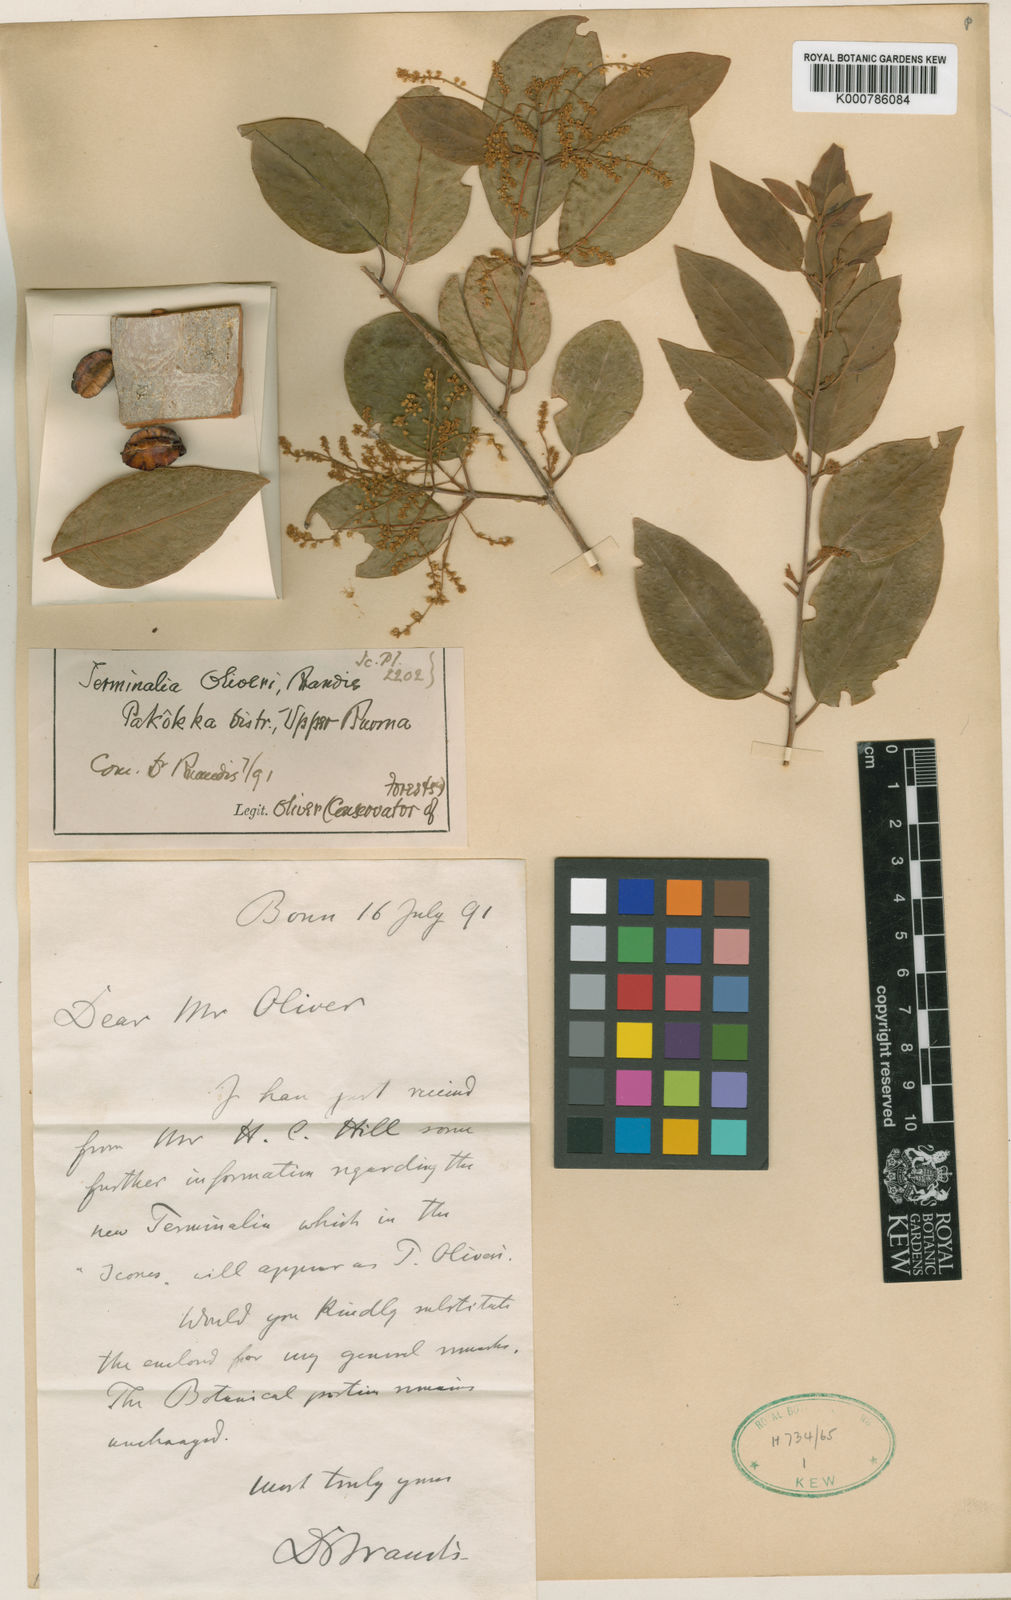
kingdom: Plantae
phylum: Tracheophyta
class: Magnoliopsida
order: Myrtales
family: Combretaceae
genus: Terminalia
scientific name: Terminalia oliveri
